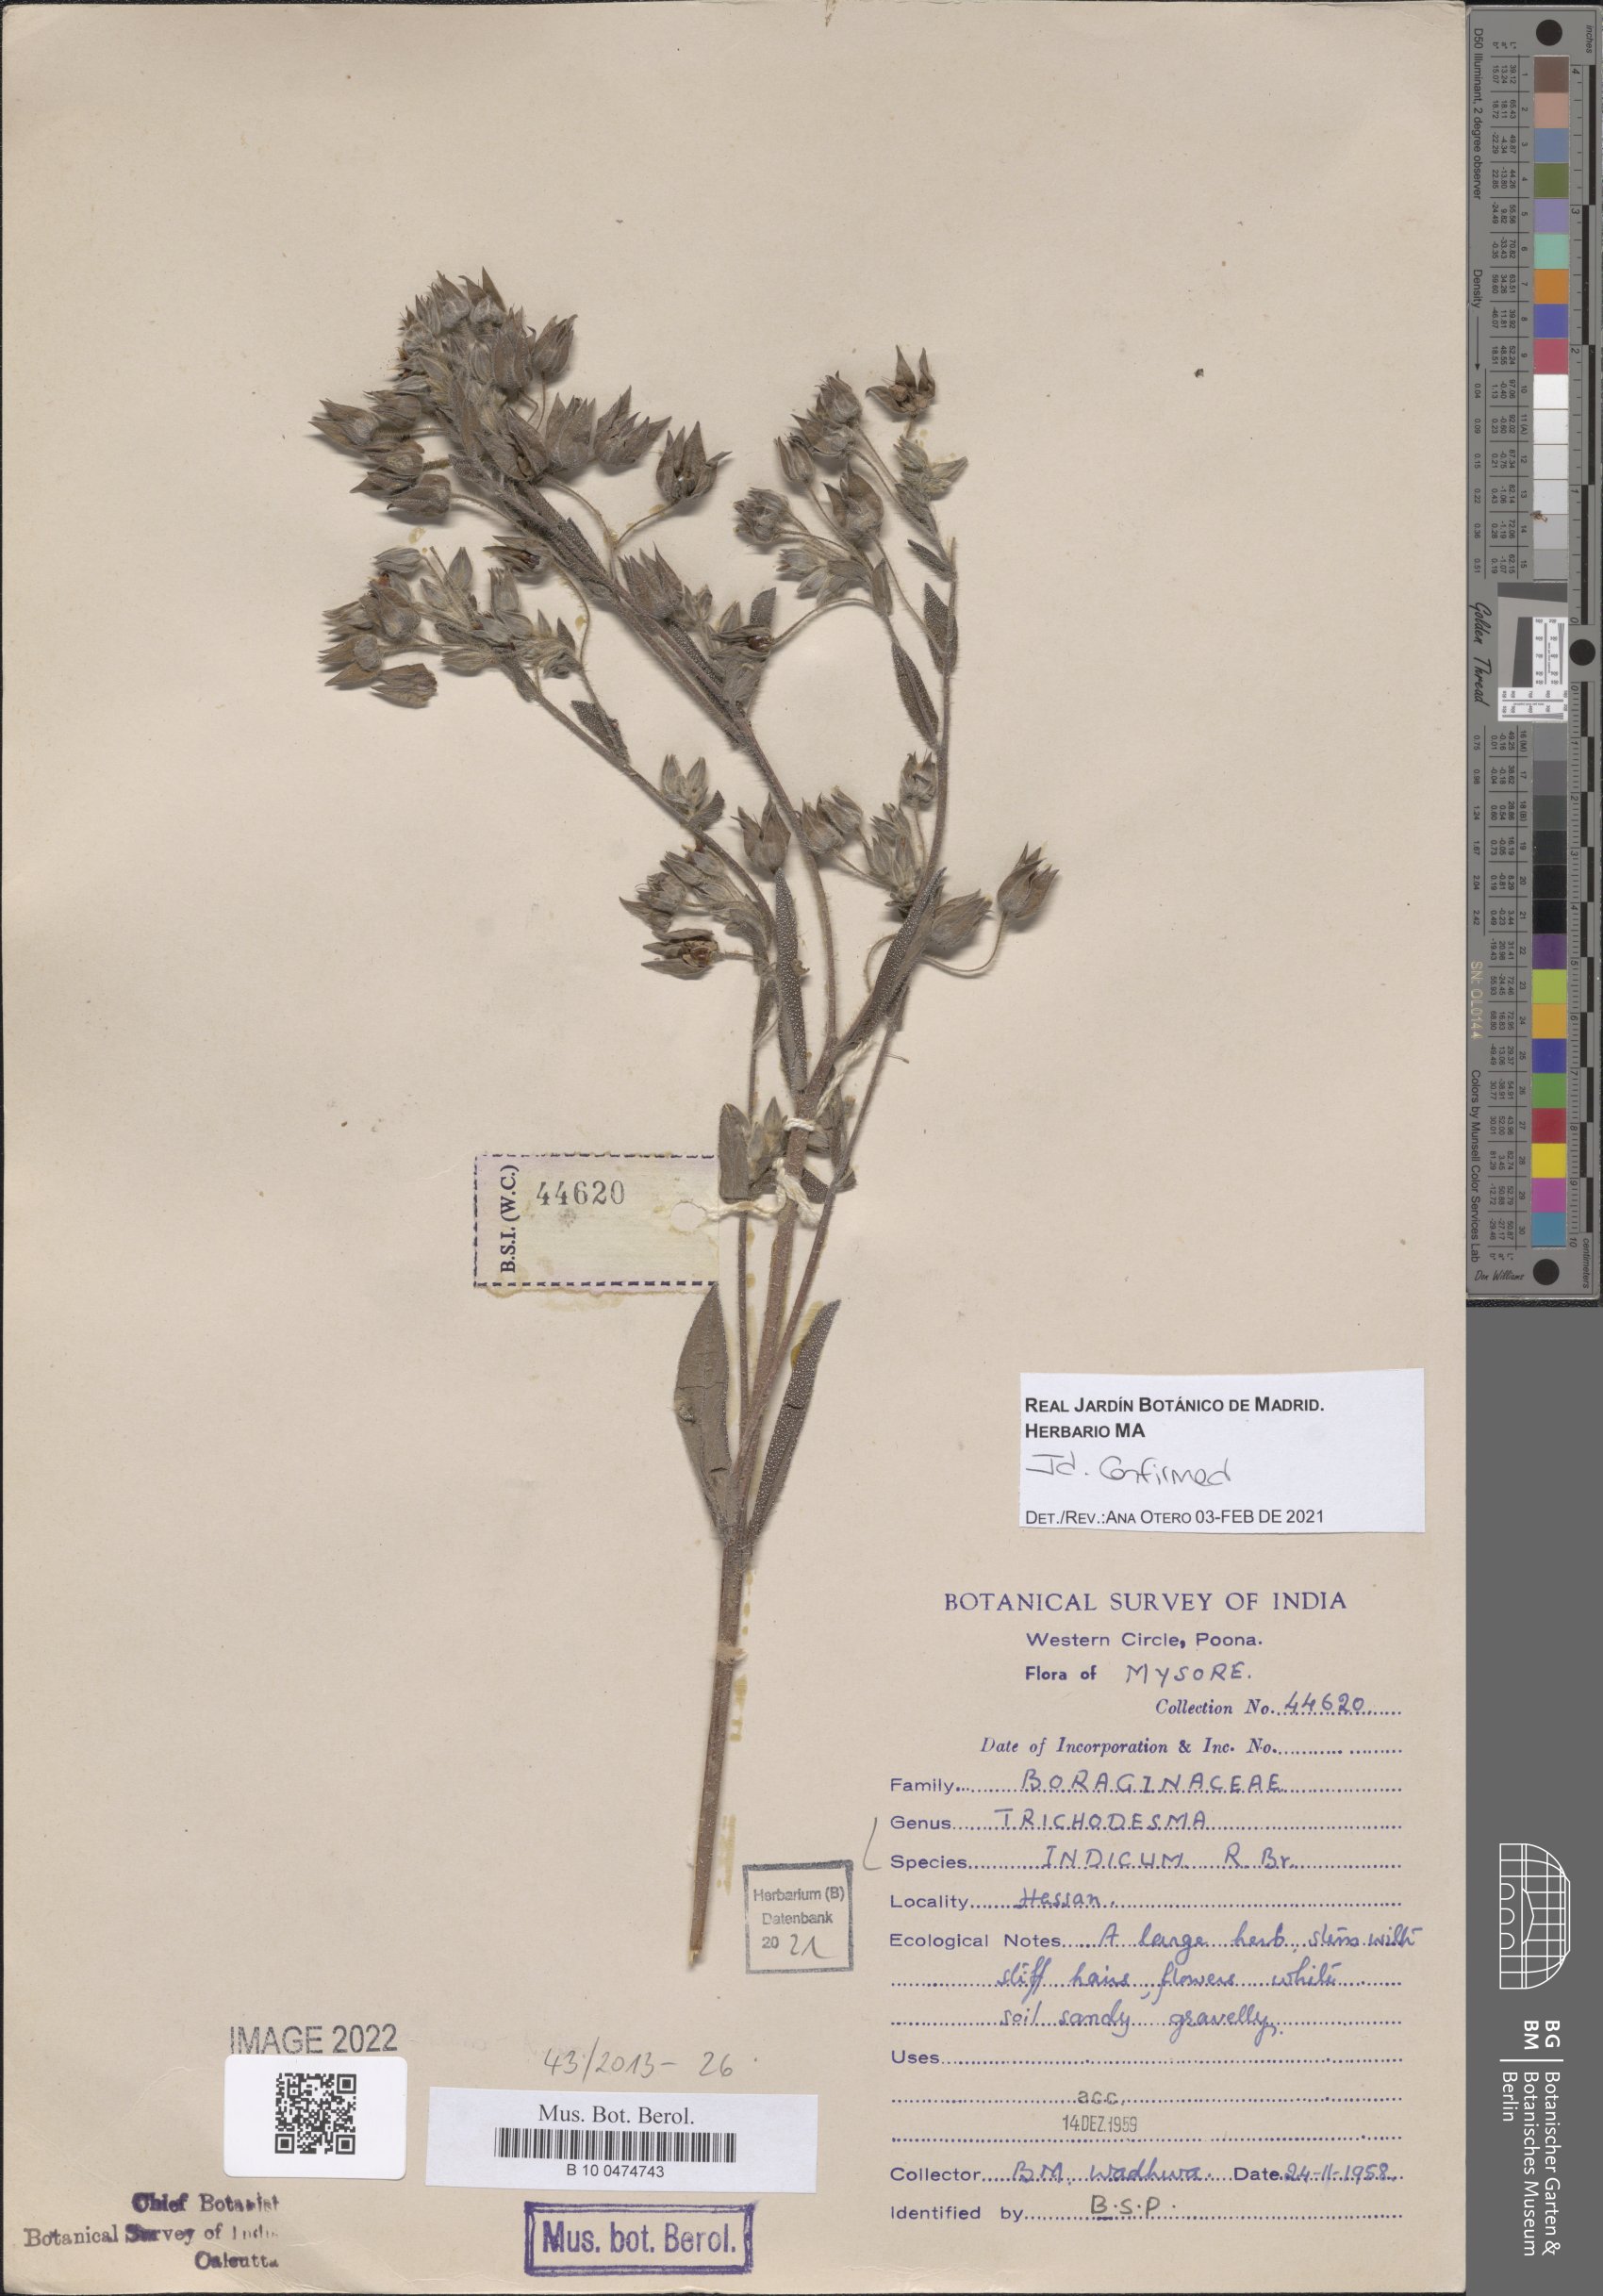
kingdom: Plantae
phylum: Tracheophyta
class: Magnoliopsida
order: Boraginales
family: Boraginaceae
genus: Trichodesma
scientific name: Trichodesma indicum
